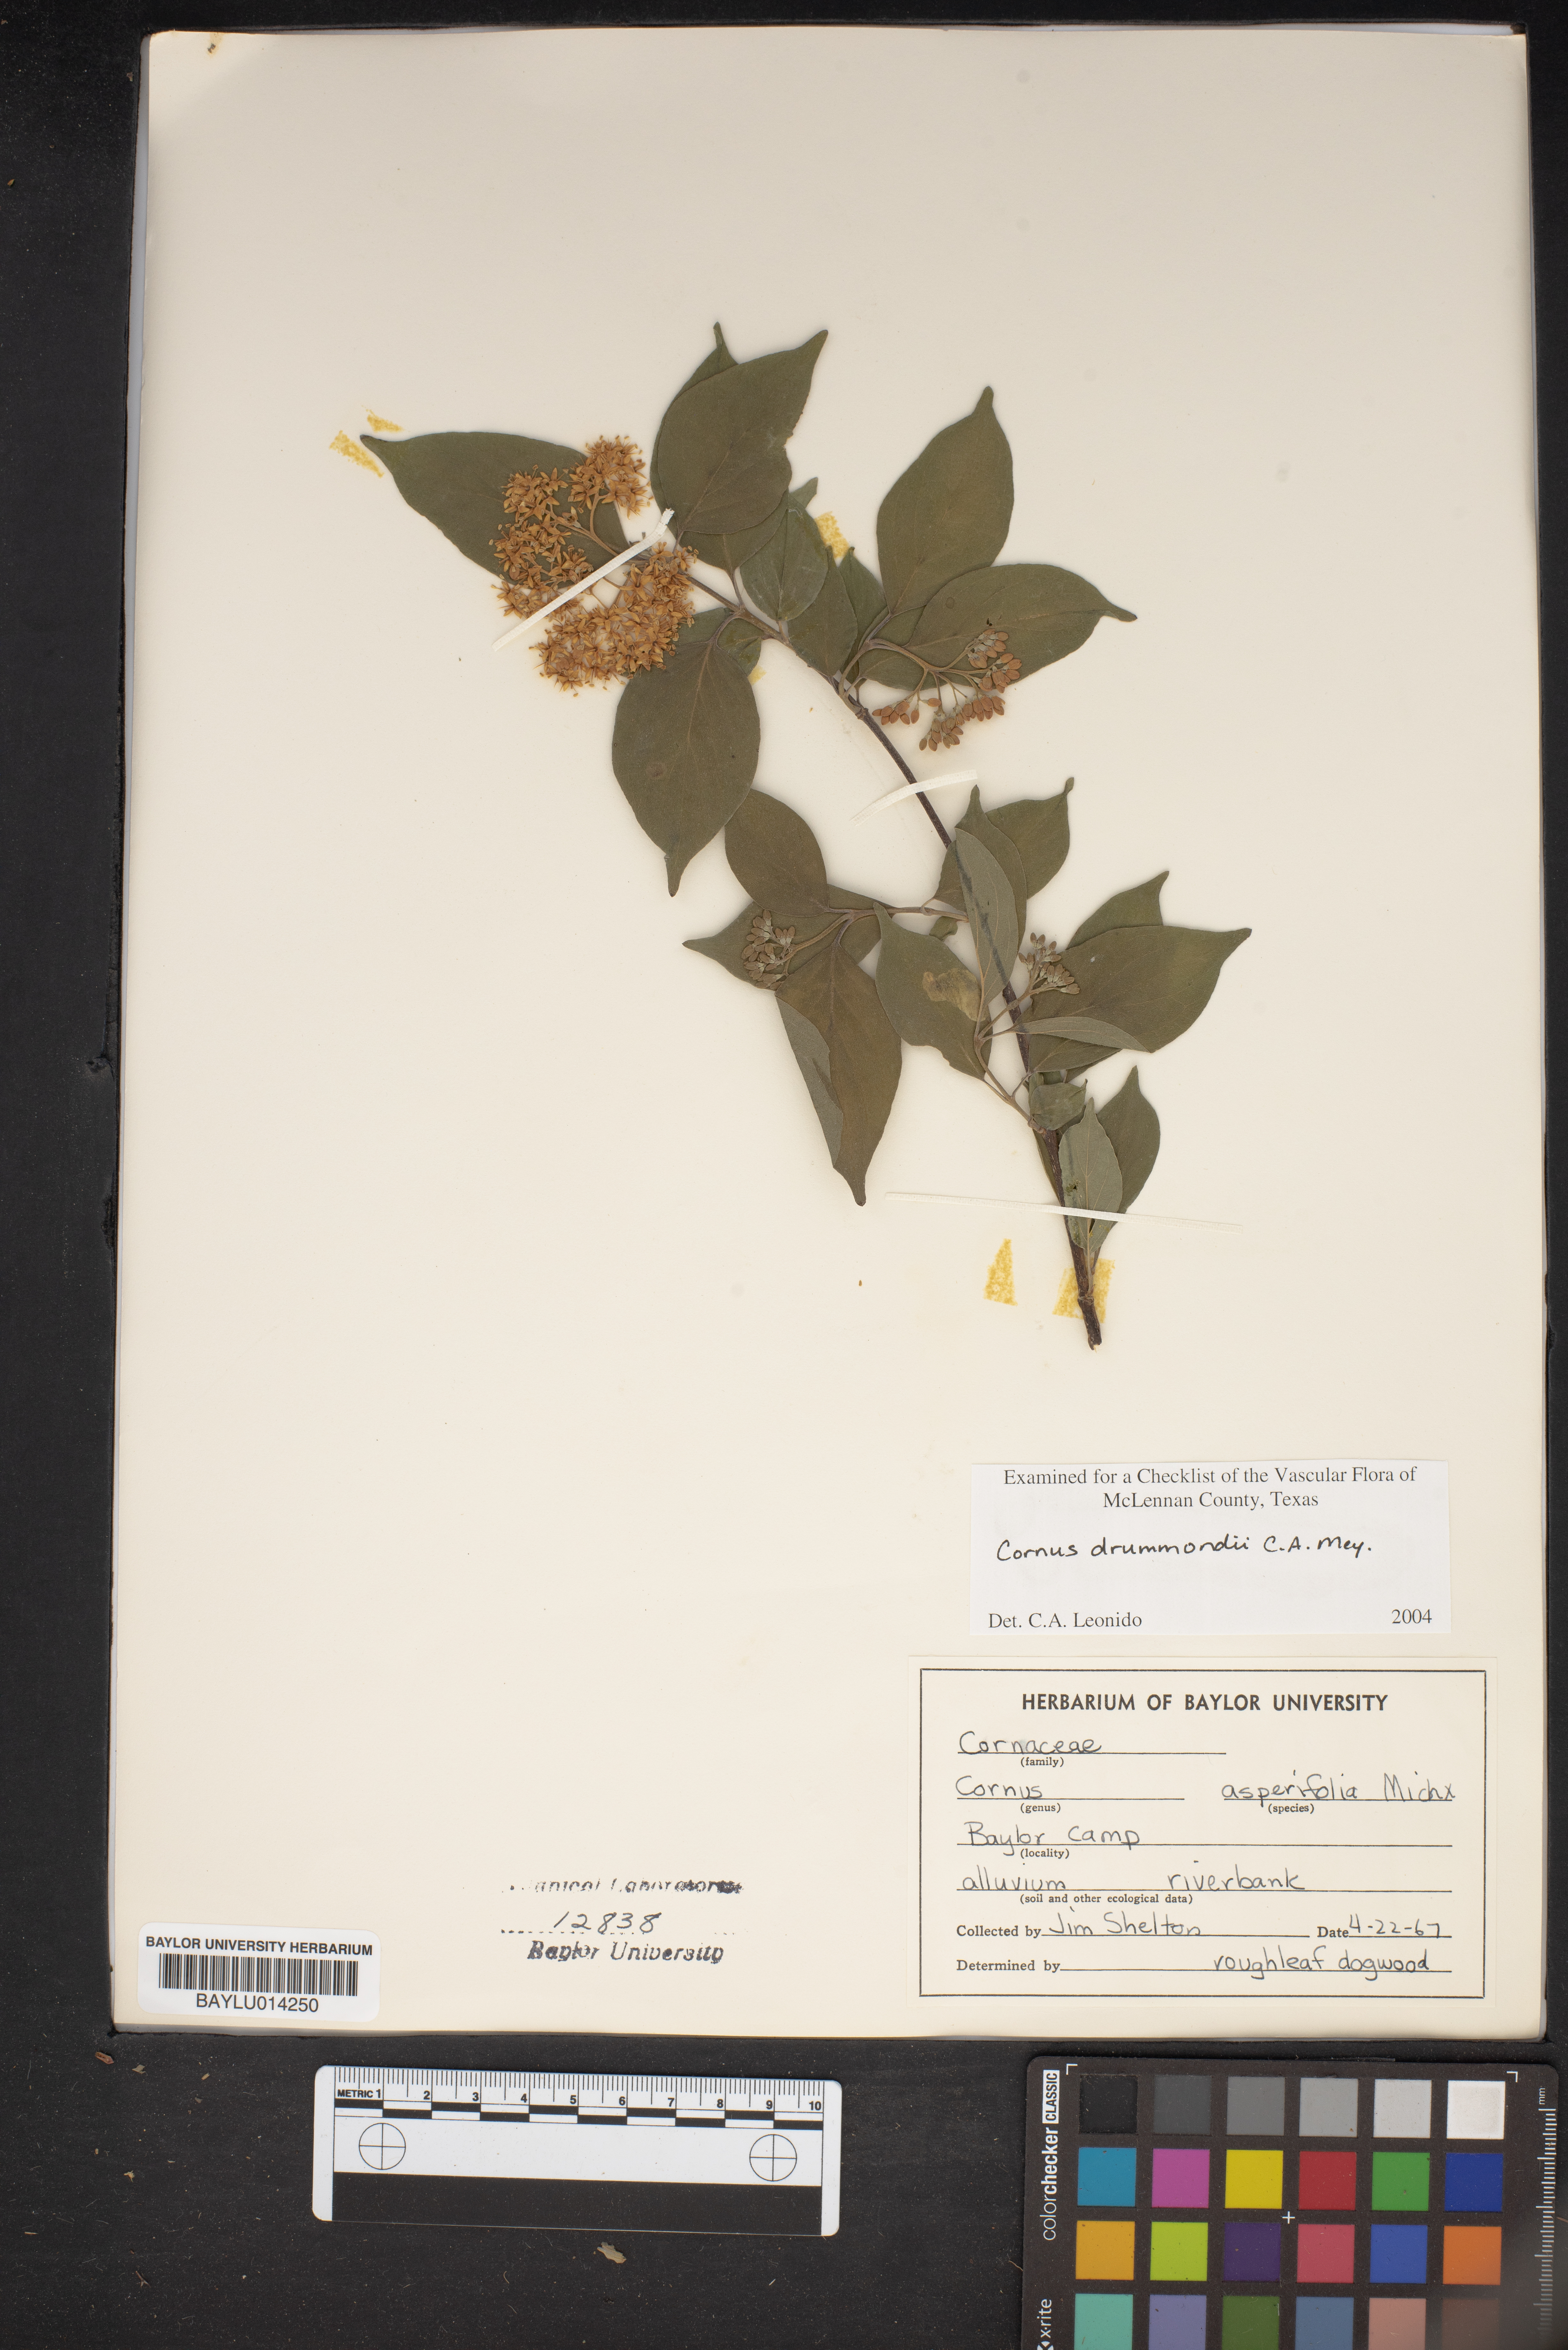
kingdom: Plantae
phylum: Tracheophyta
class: Magnoliopsida
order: Cornales
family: Cornaceae
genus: Cornus
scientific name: Cornus drummondii
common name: Rough-leaf dogwood
